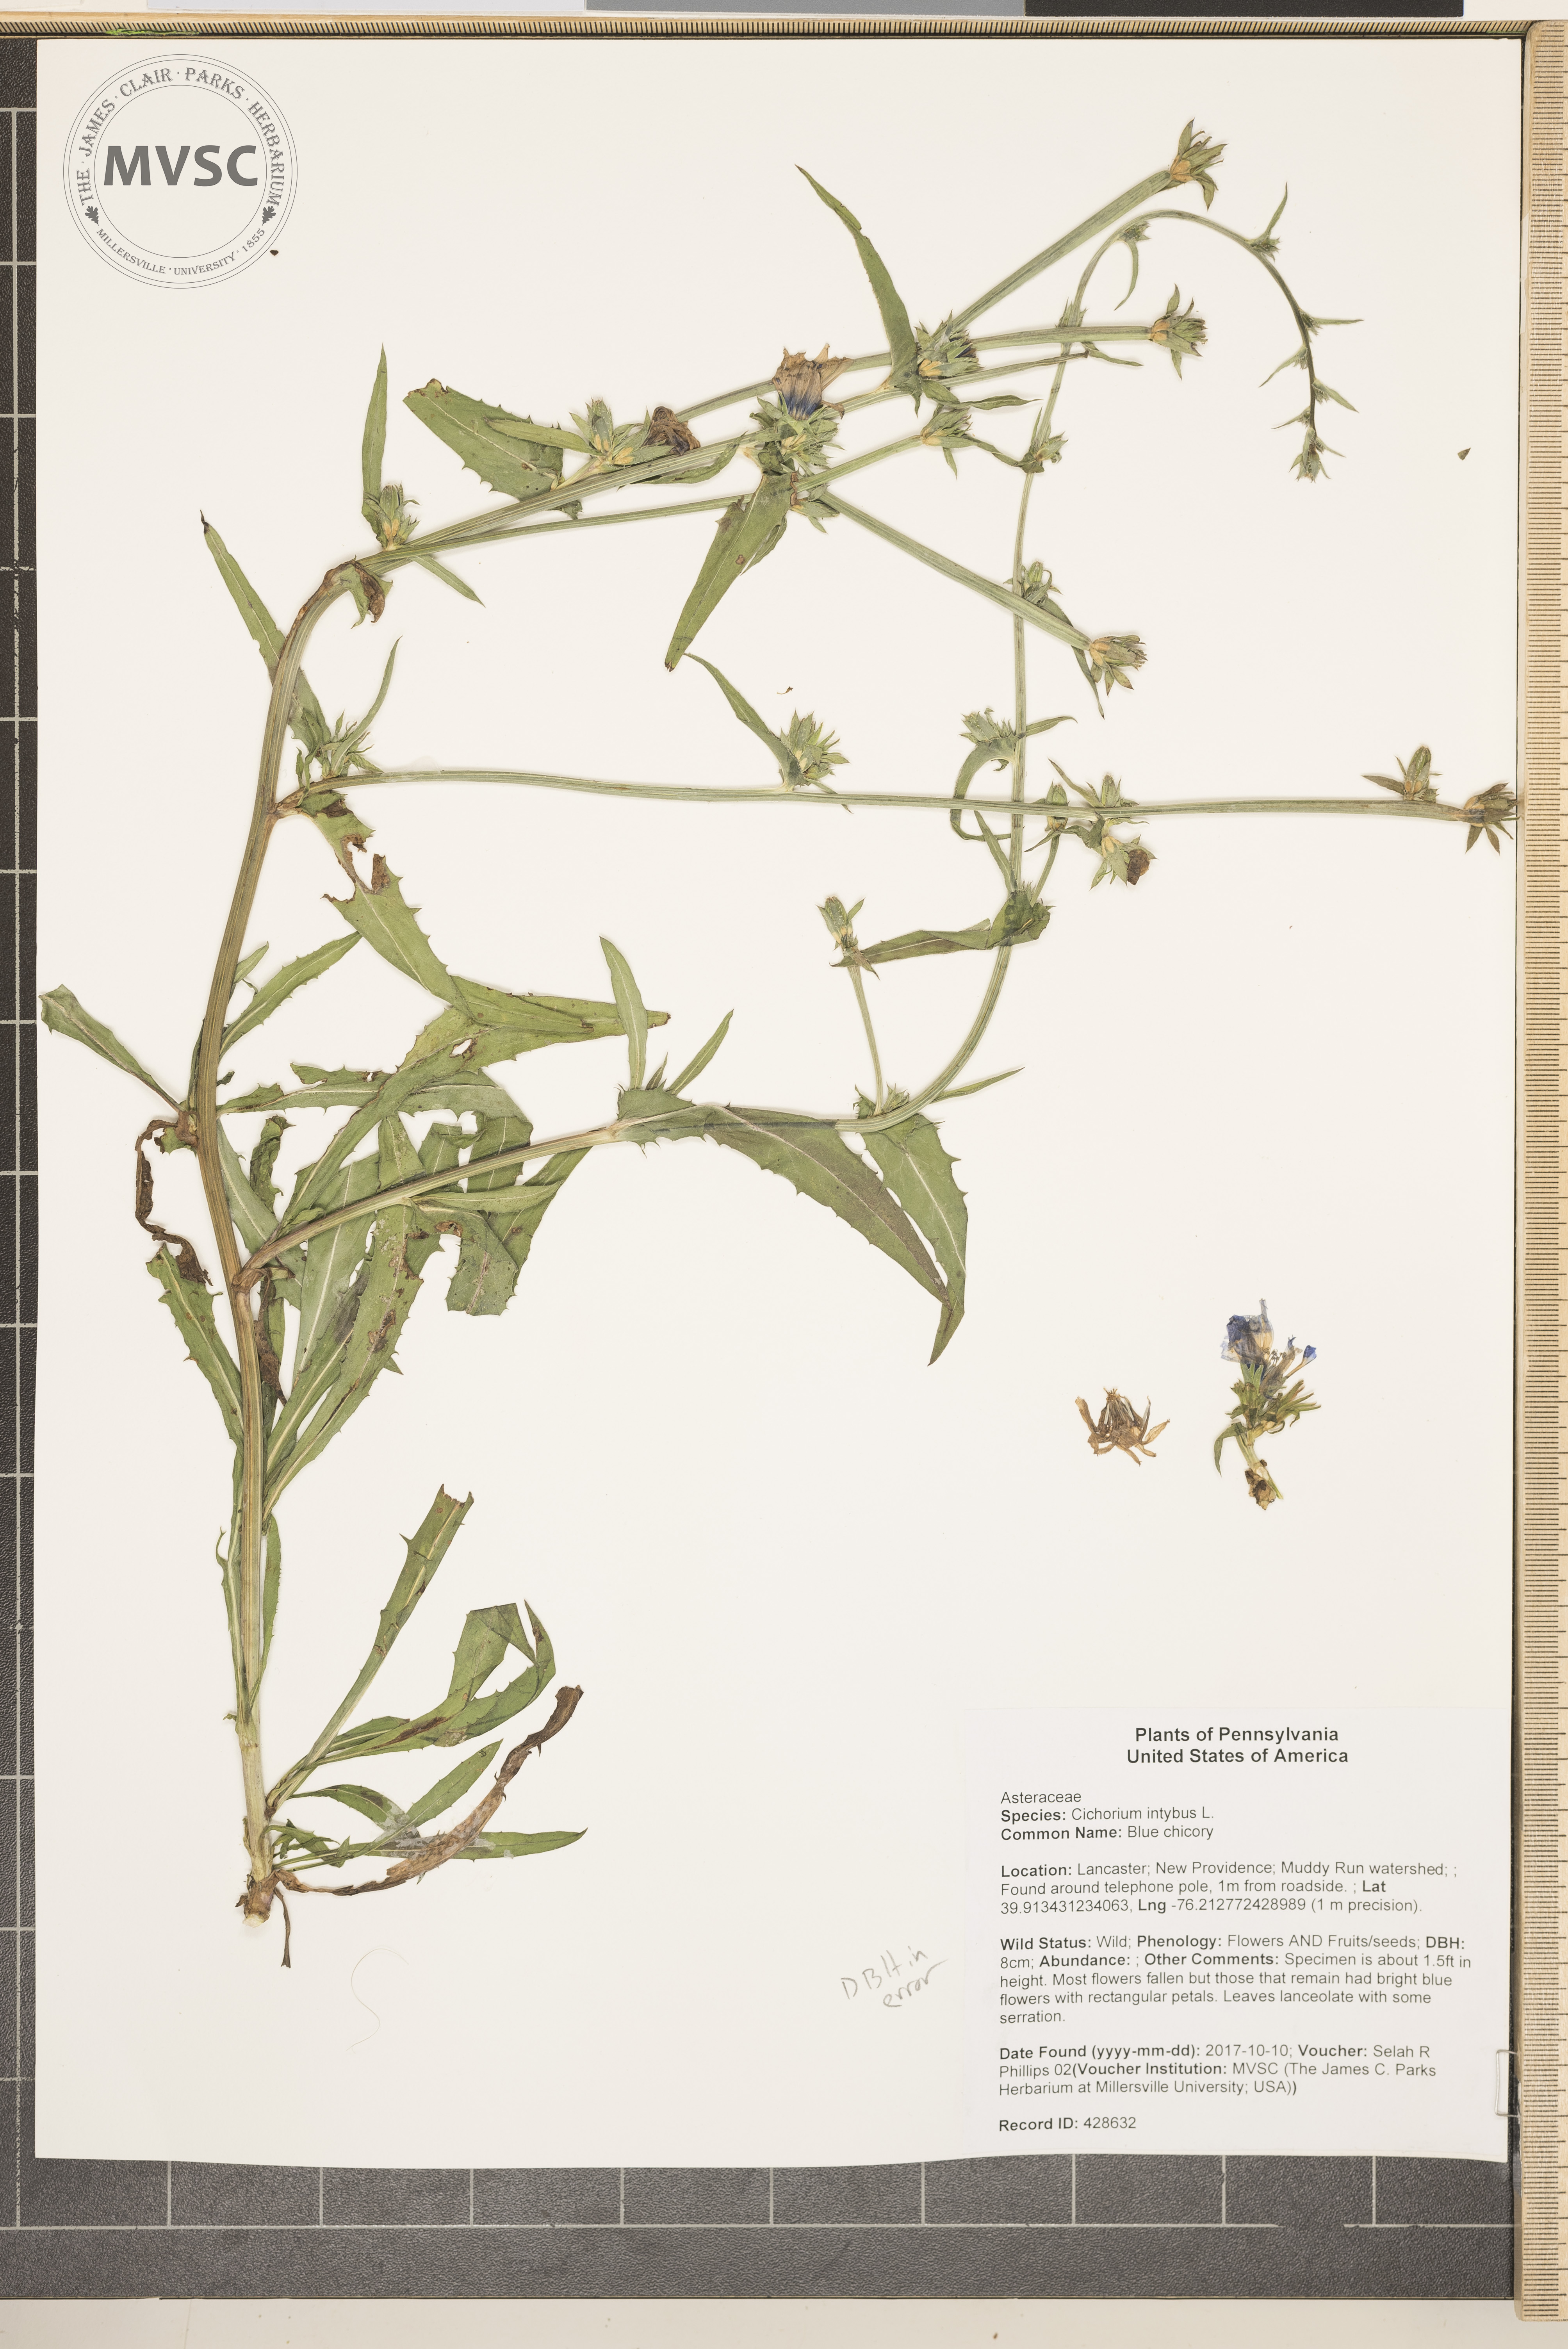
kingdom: Plantae
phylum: Tracheophyta
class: Magnoliopsida
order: Asterales
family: Asteraceae
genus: Cichorium
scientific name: Cichorium intybus
